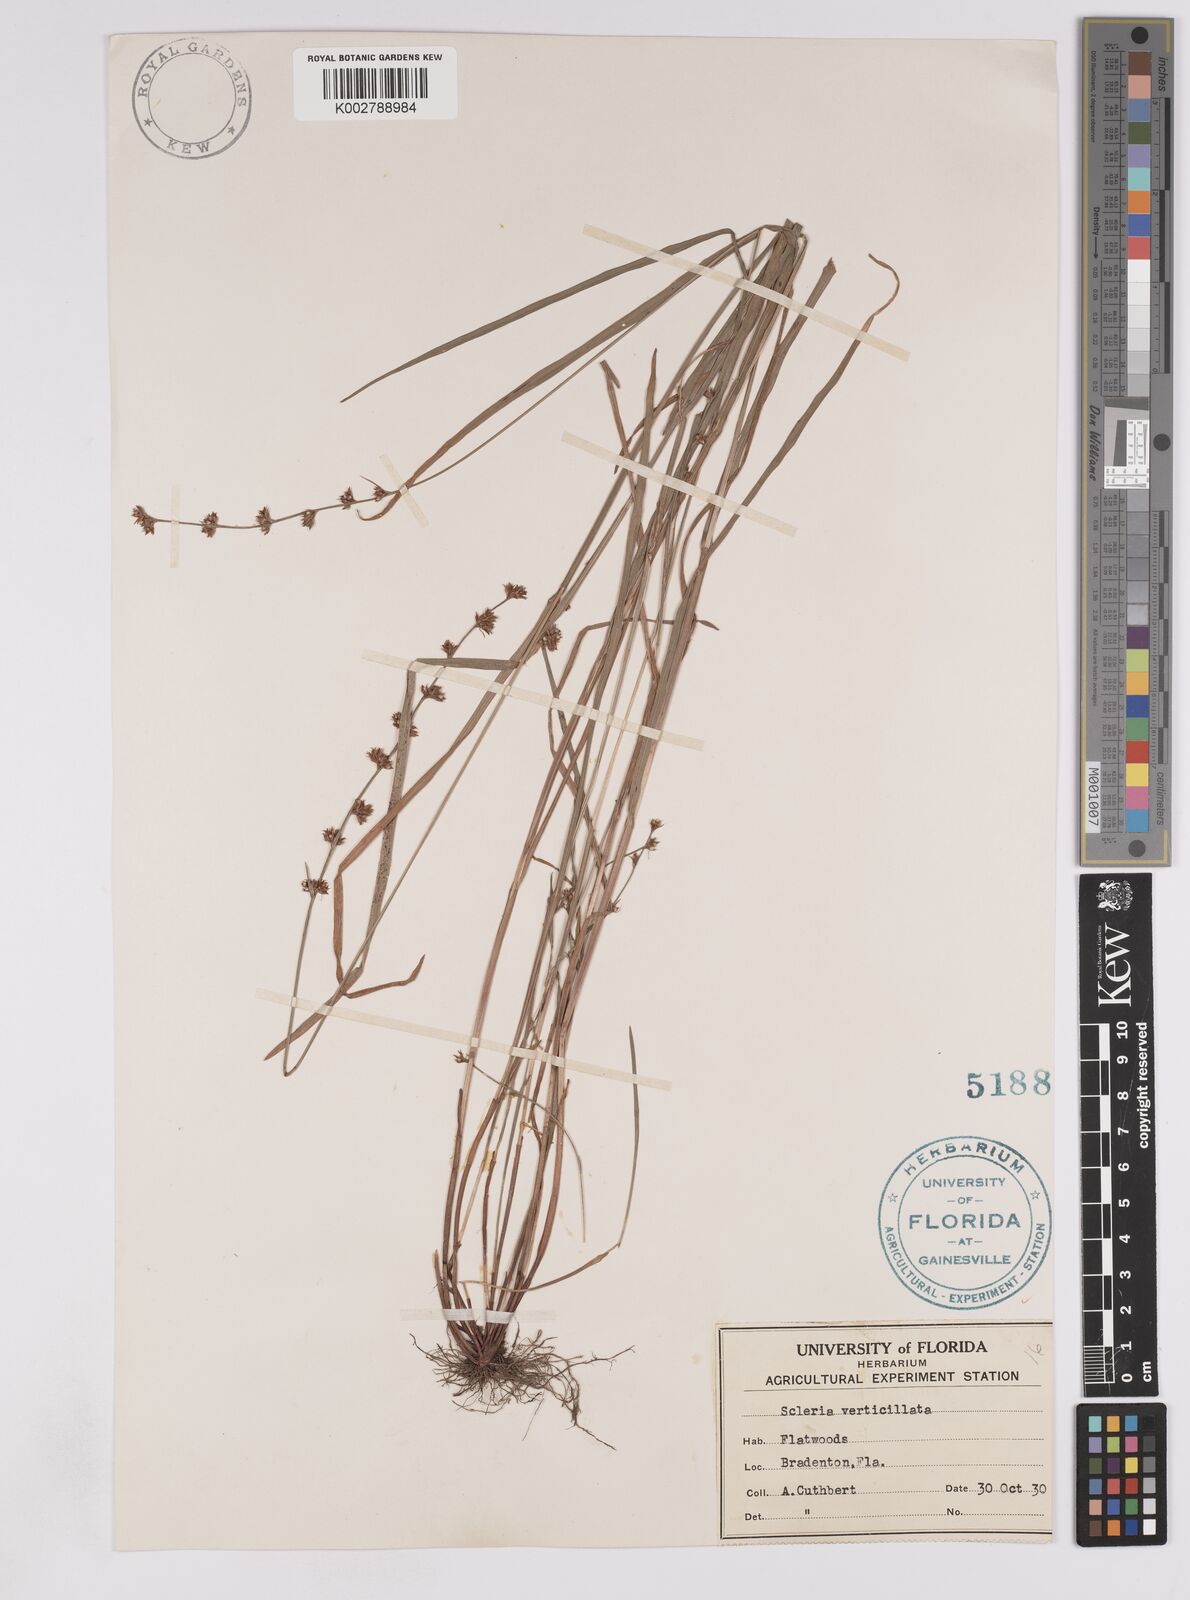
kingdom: Plantae
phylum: Tracheophyta
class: Liliopsida
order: Poales
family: Cyperaceae
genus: Scleria
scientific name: Scleria verticillata
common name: Low nutrush
